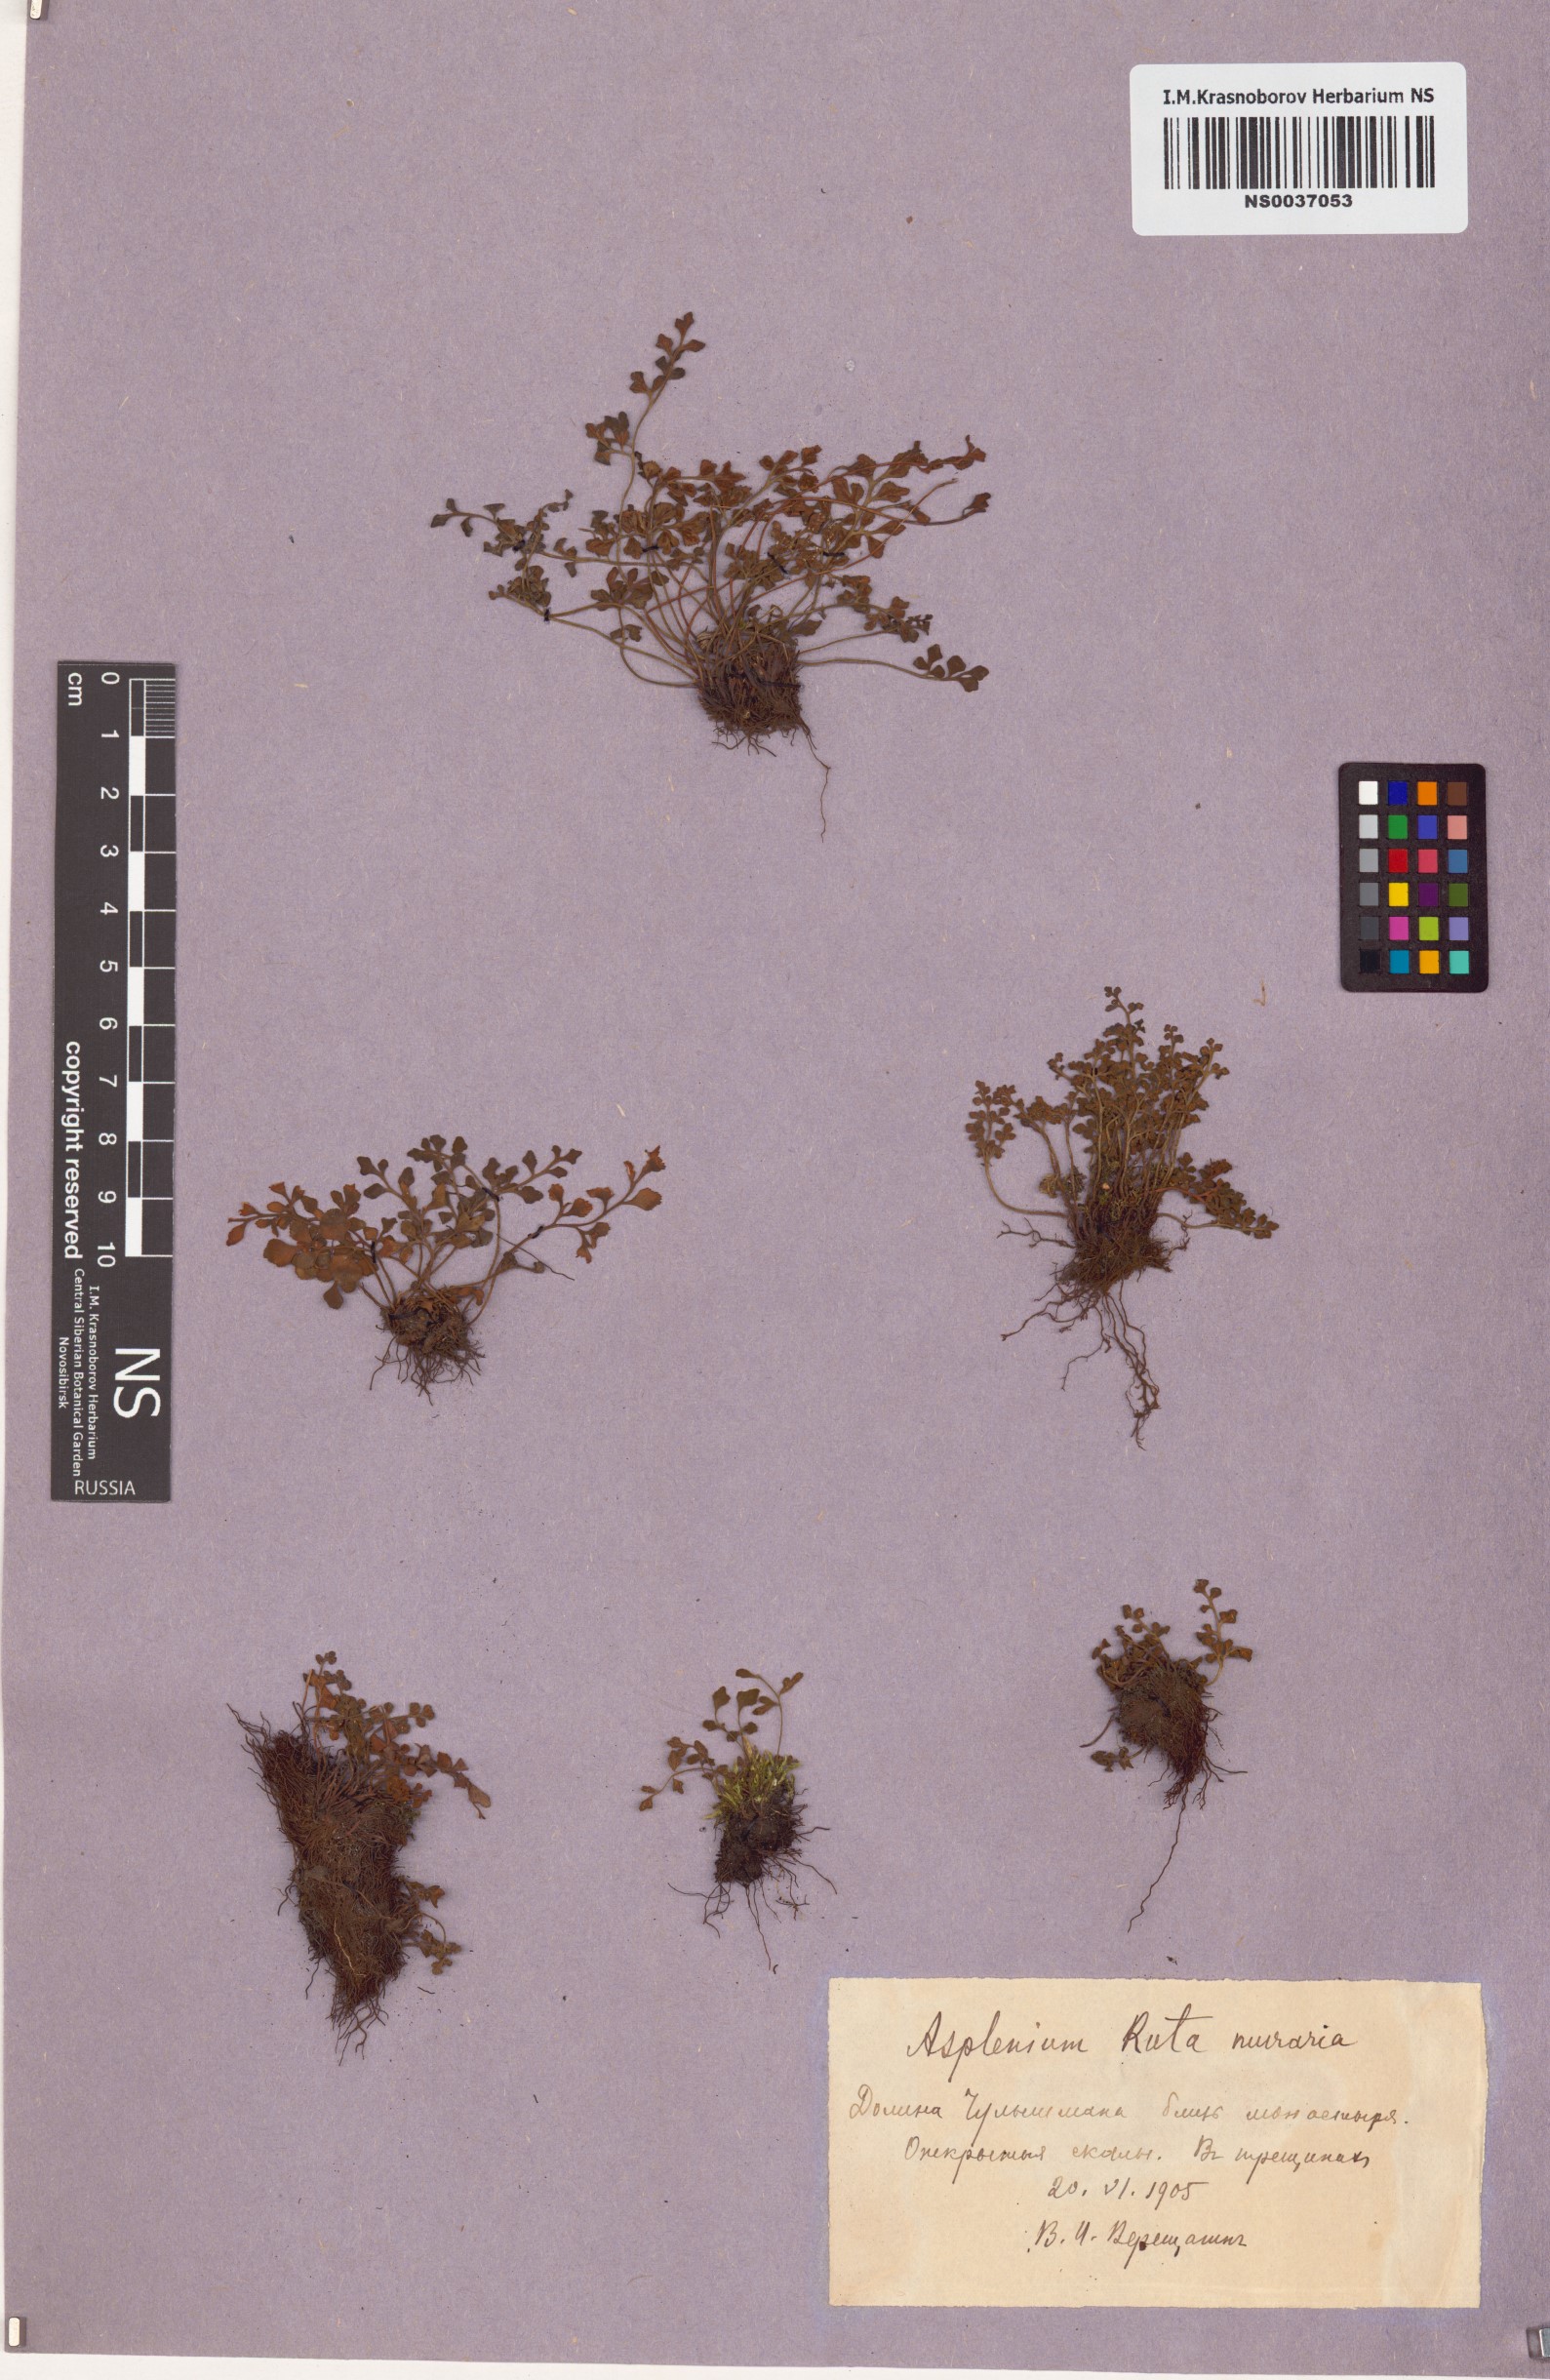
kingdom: Plantae
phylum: Tracheophyta
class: Polypodiopsida
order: Polypodiales
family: Aspleniaceae
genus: Asplenium
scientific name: Asplenium ruta-muraria
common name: Wall-rue
